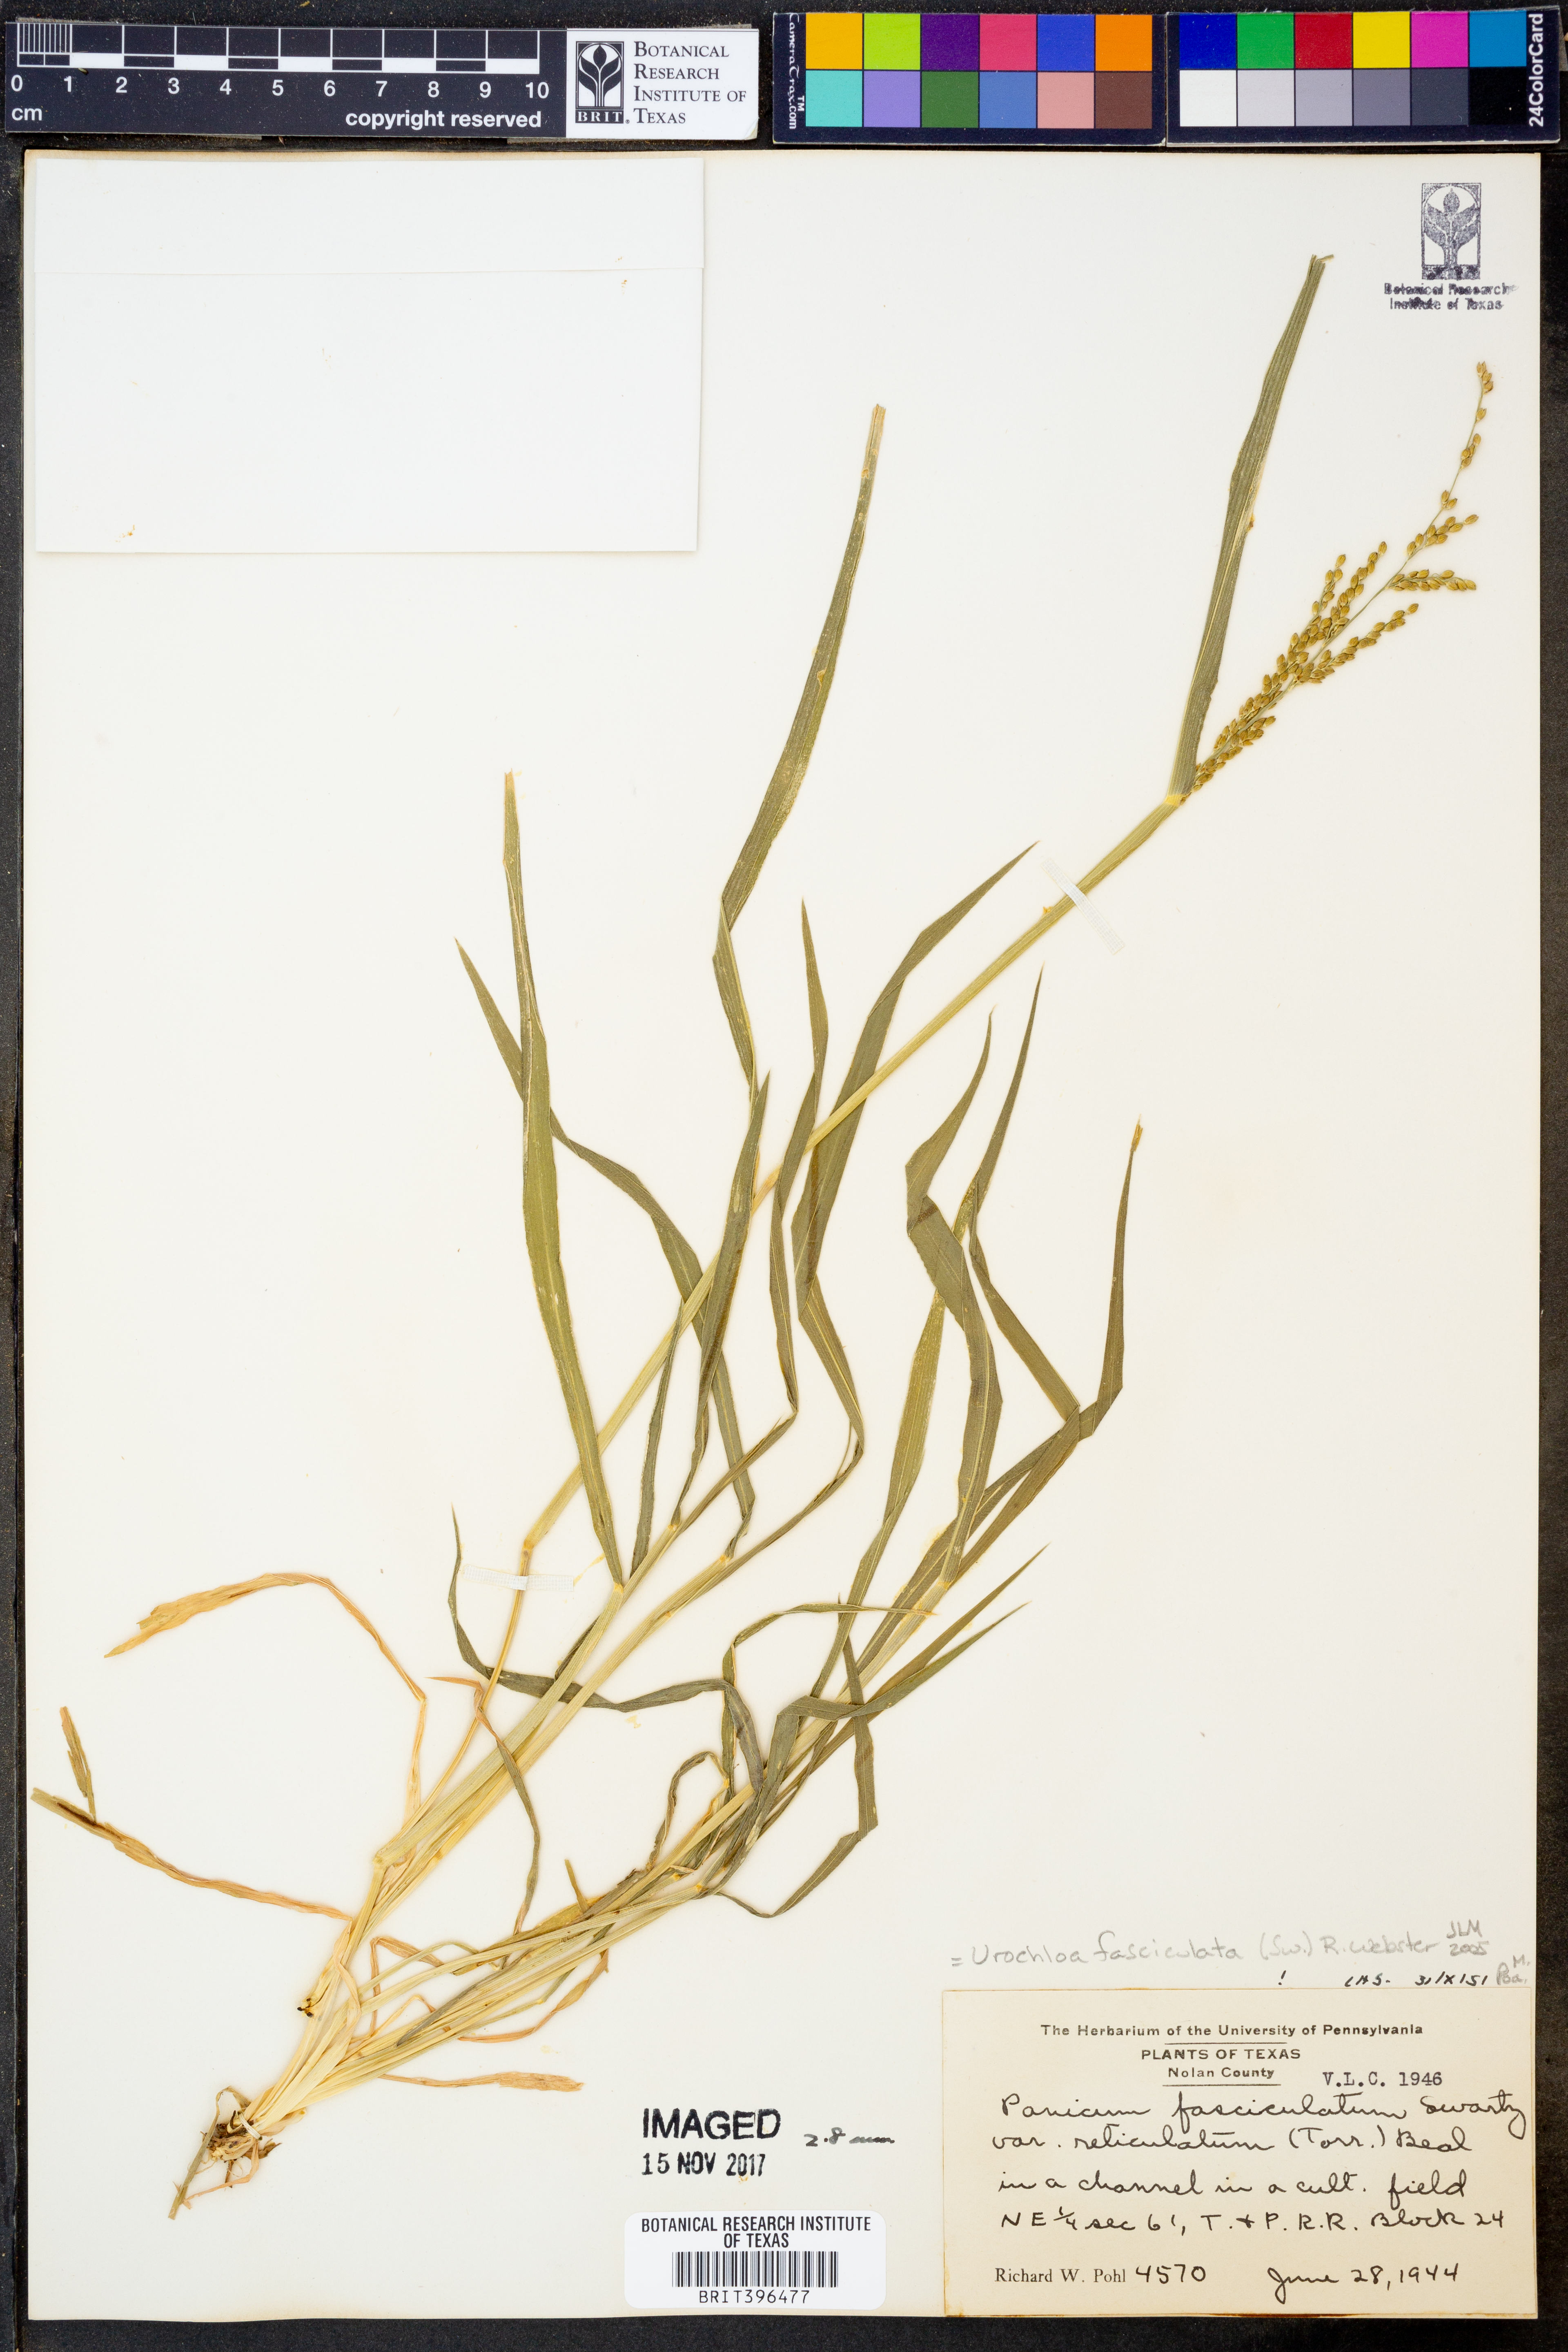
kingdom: Plantae
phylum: Tracheophyta
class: Liliopsida
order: Poales
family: Poaceae
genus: Urochloa
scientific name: Urochloa fusca
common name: Browntop signal grass
